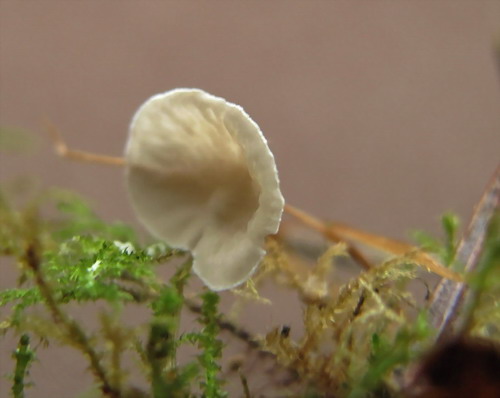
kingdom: Fungi
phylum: Basidiomycota
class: Agaricomycetes
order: Agaricales
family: Hygrophoraceae
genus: Arrhenia
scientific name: Arrhenia retiruga
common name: lille fontænehat
